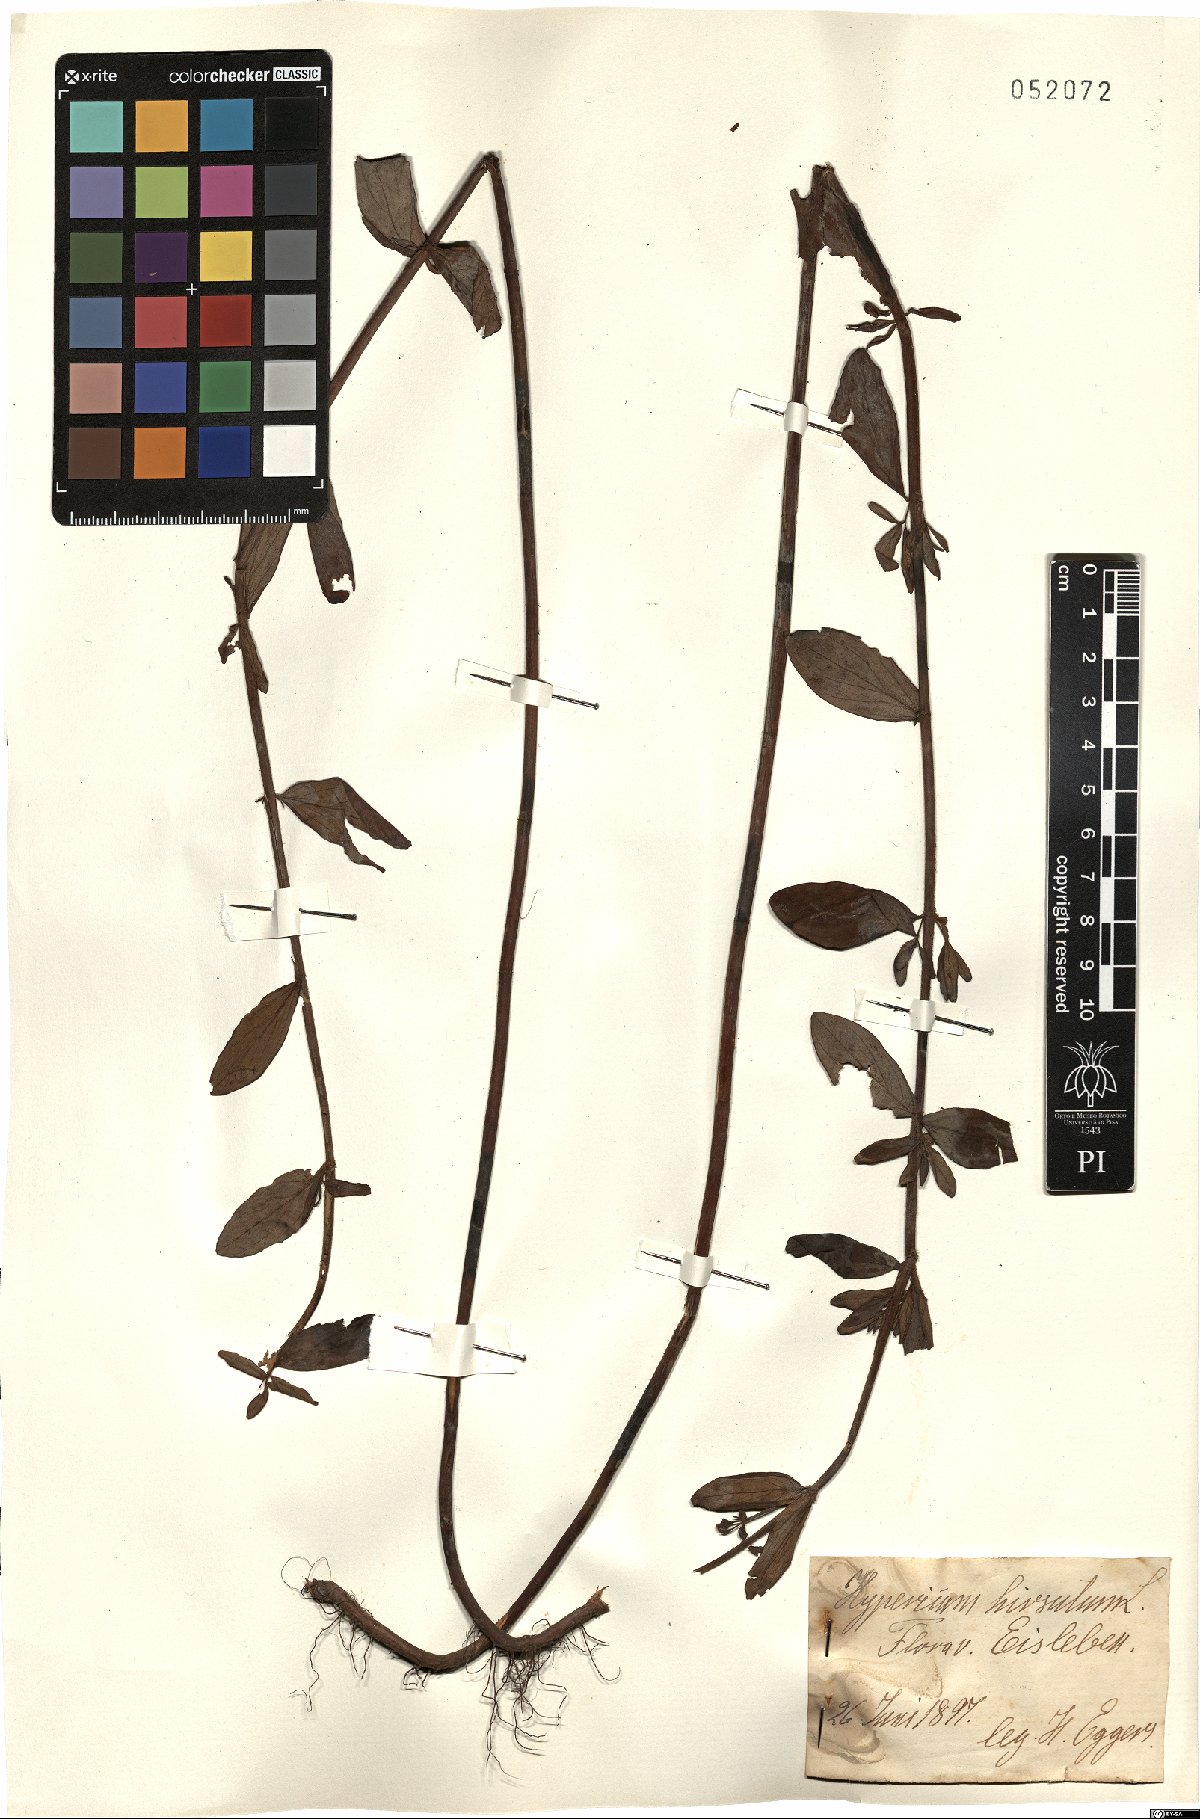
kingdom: Plantae
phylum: Tracheophyta
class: Magnoliopsida
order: Malpighiales
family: Hypericaceae
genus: Hypericum
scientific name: Hypericum hirsutum
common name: Hairy st. john's-wort
